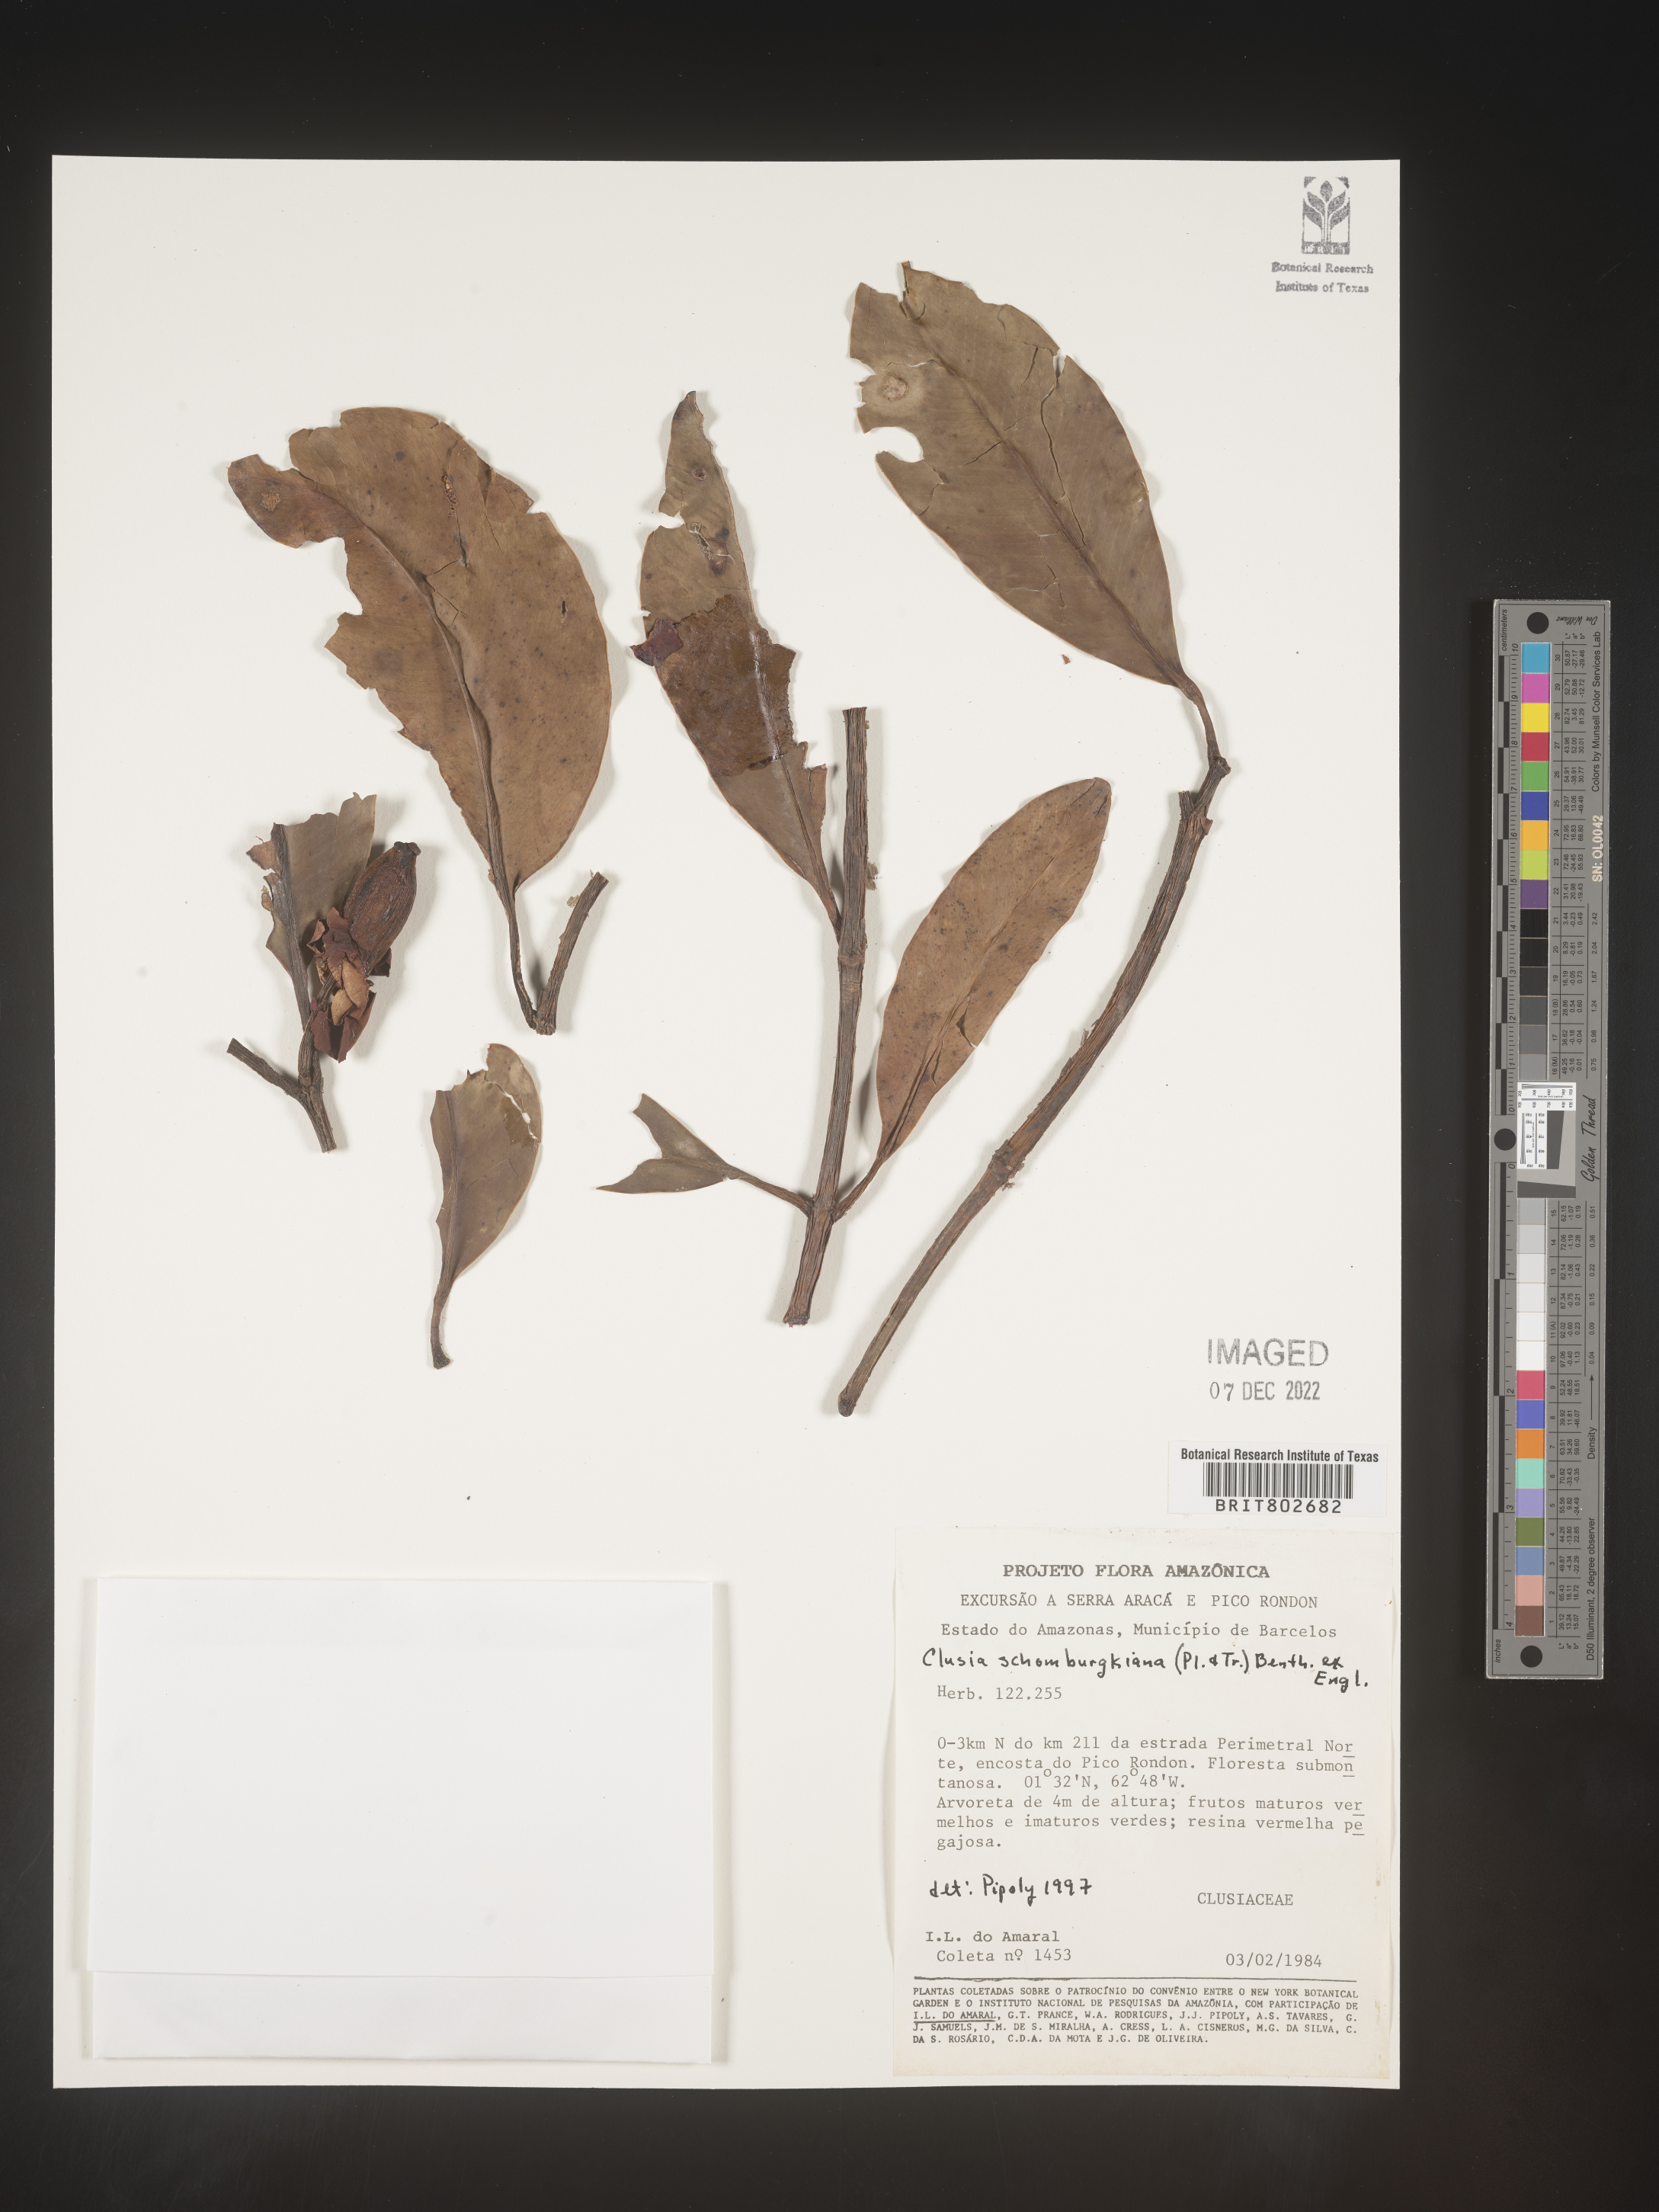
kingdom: Plantae
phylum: Tracheophyta
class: Magnoliopsida
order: Malpighiales
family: Clusiaceae
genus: Clusia
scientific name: Clusia schomburgkiana
